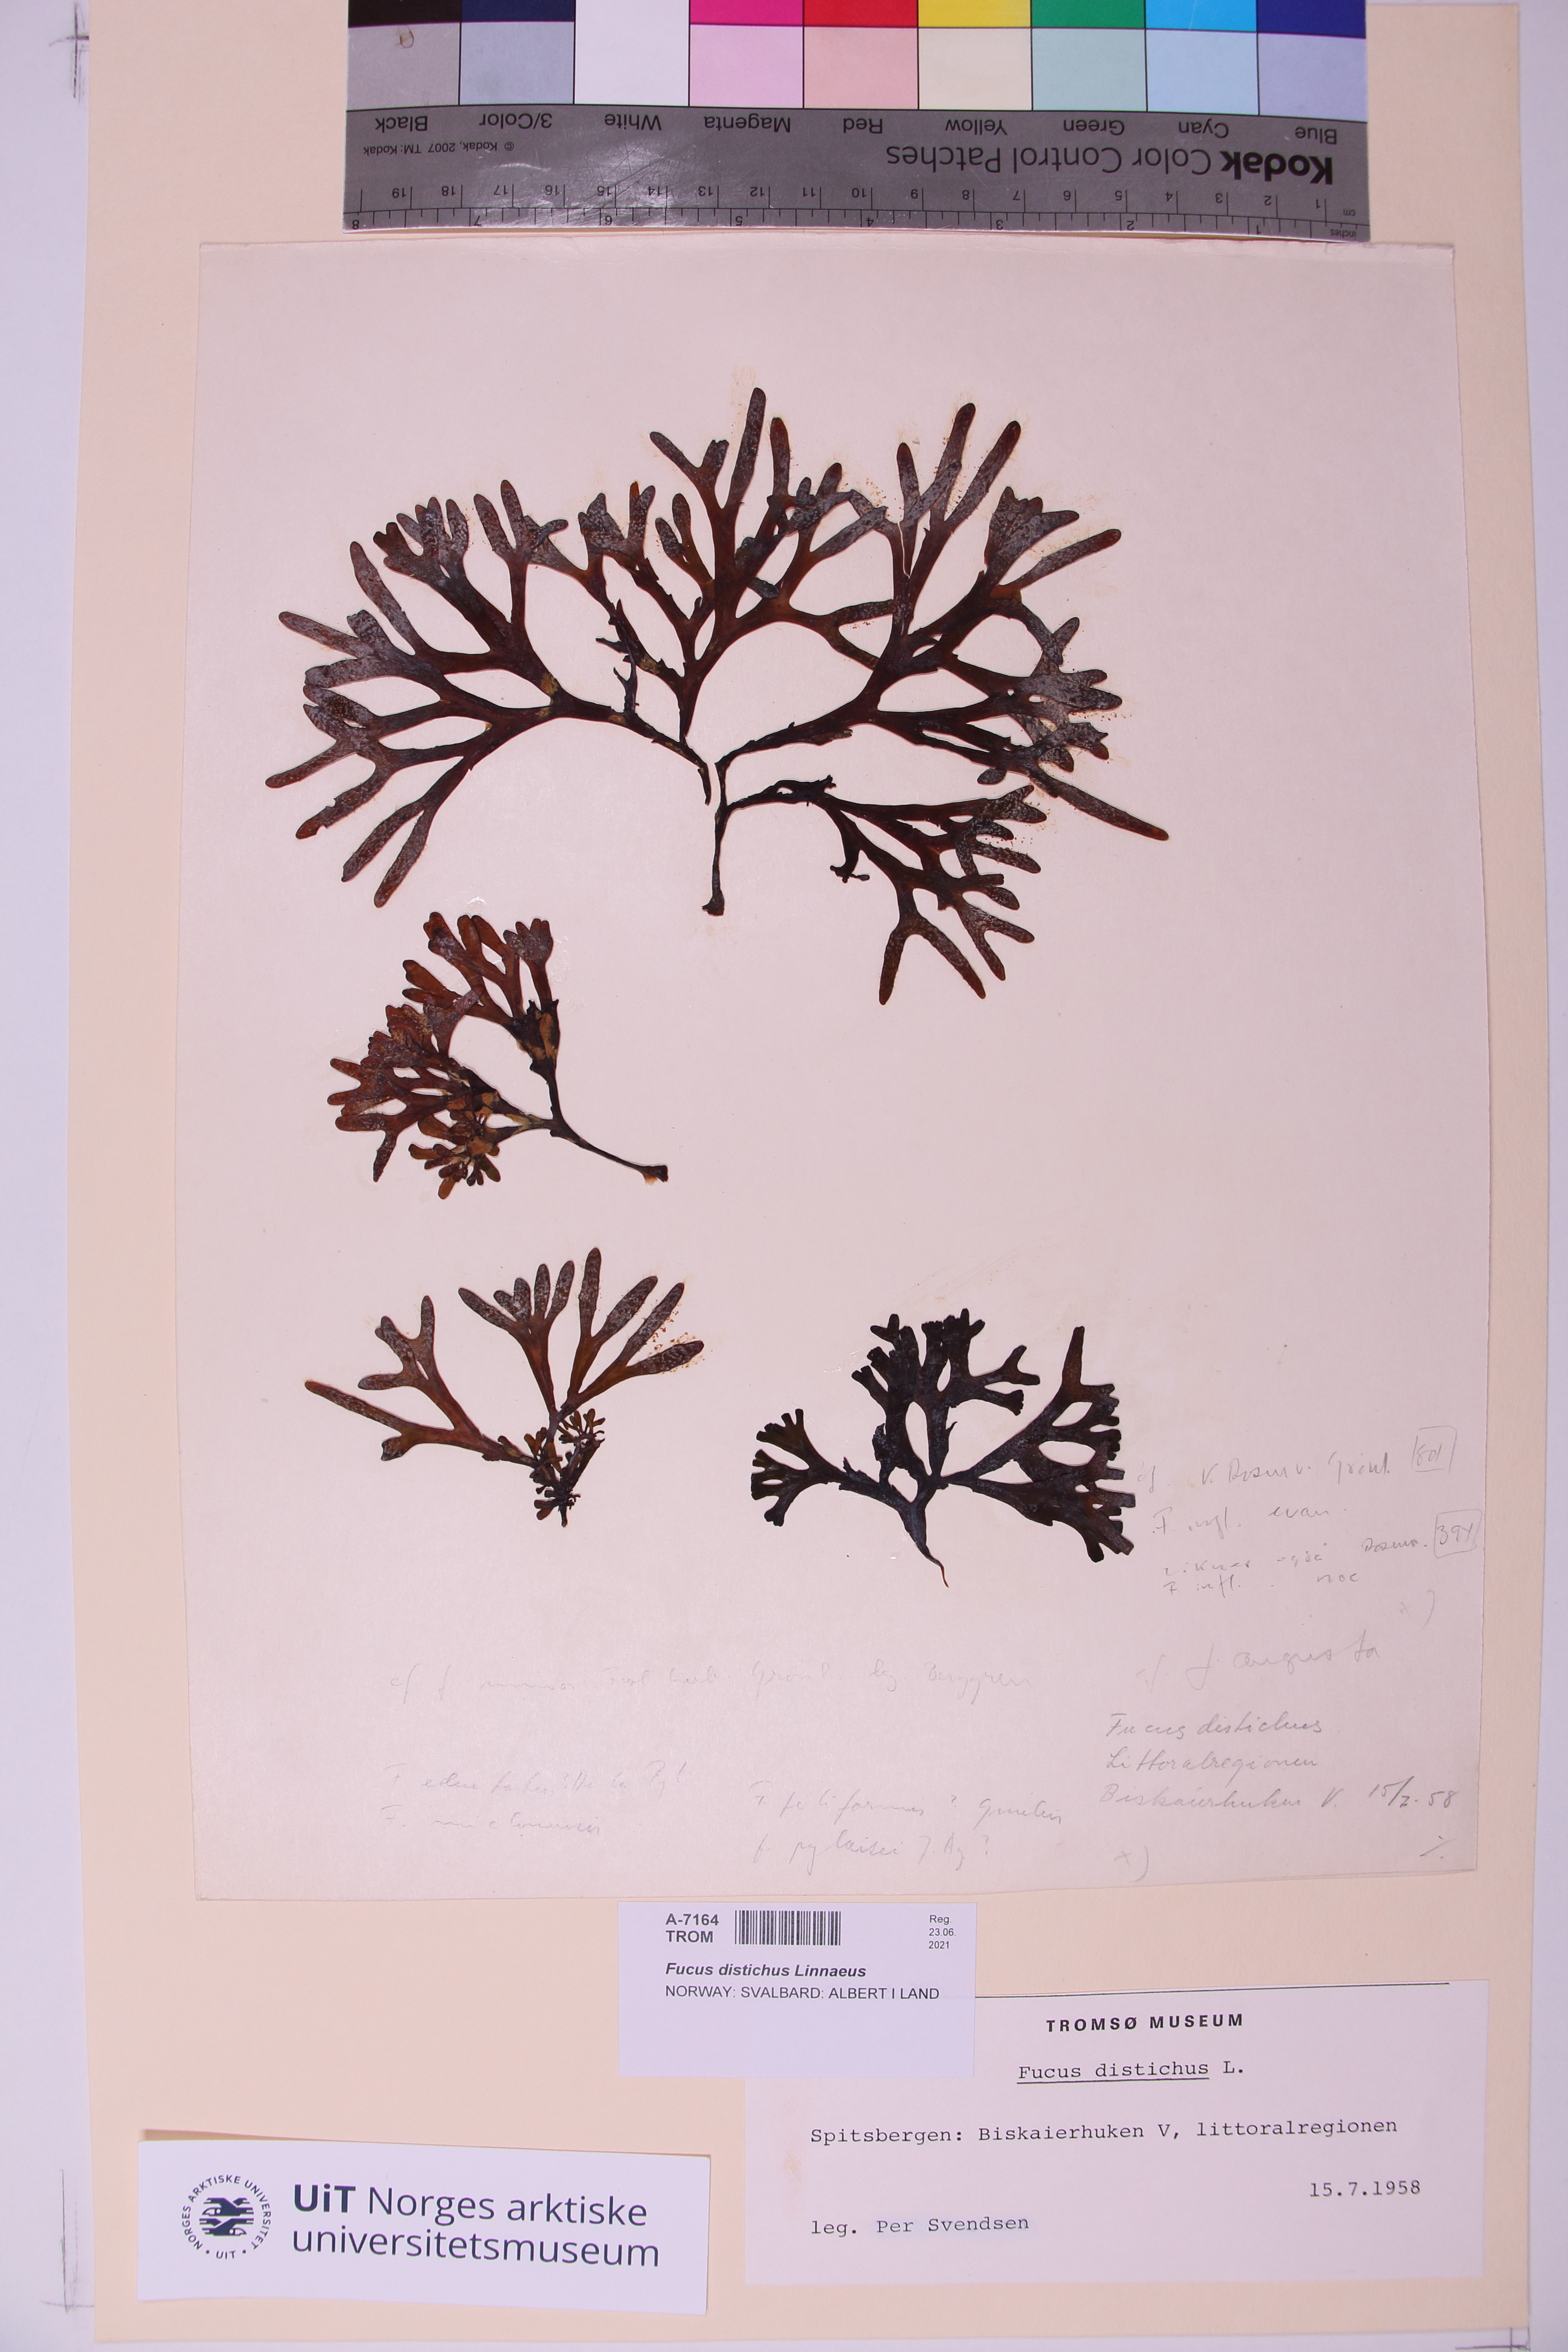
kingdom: Chromista
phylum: Ochrophyta
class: Phaeophyceae
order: Fucales
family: Fucaceae
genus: Fucus
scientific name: Fucus distichus
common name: Rockweed
